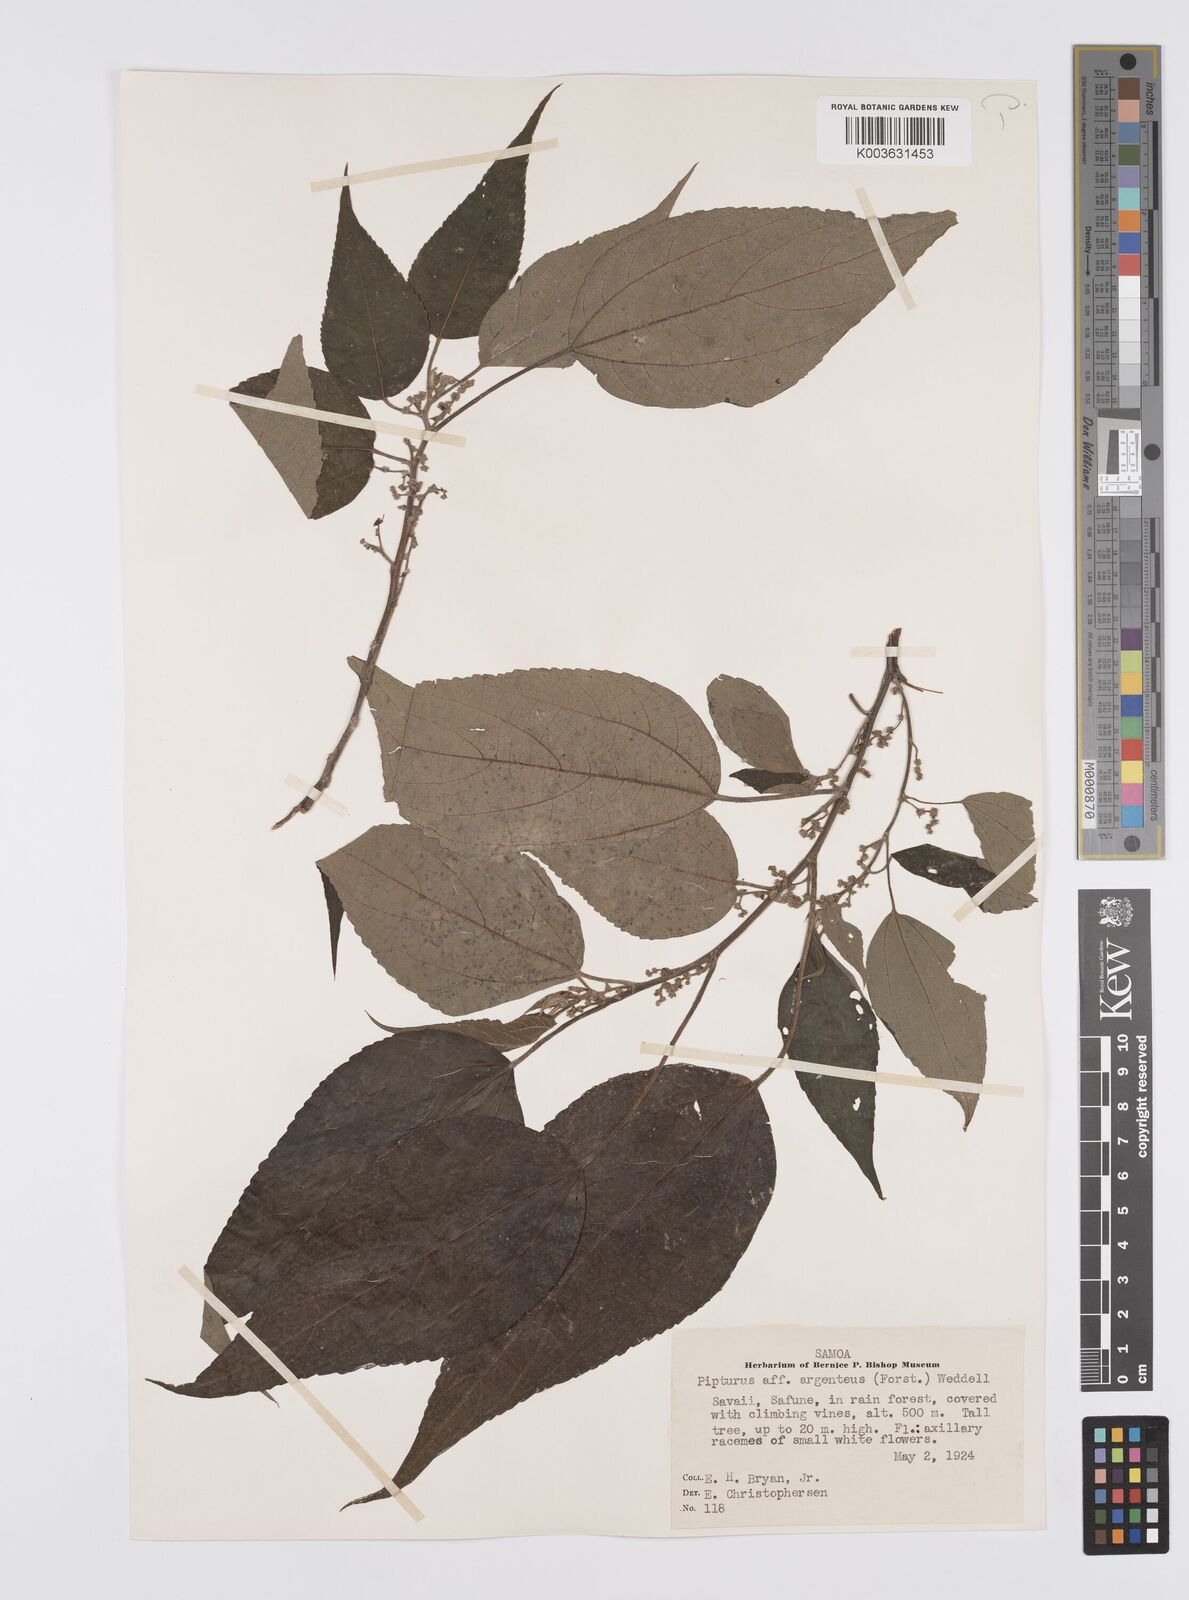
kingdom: Plantae
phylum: Tracheophyta
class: Magnoliopsida
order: Rosales
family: Urticaceae
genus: Pipturus
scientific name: Pipturus argenteus
